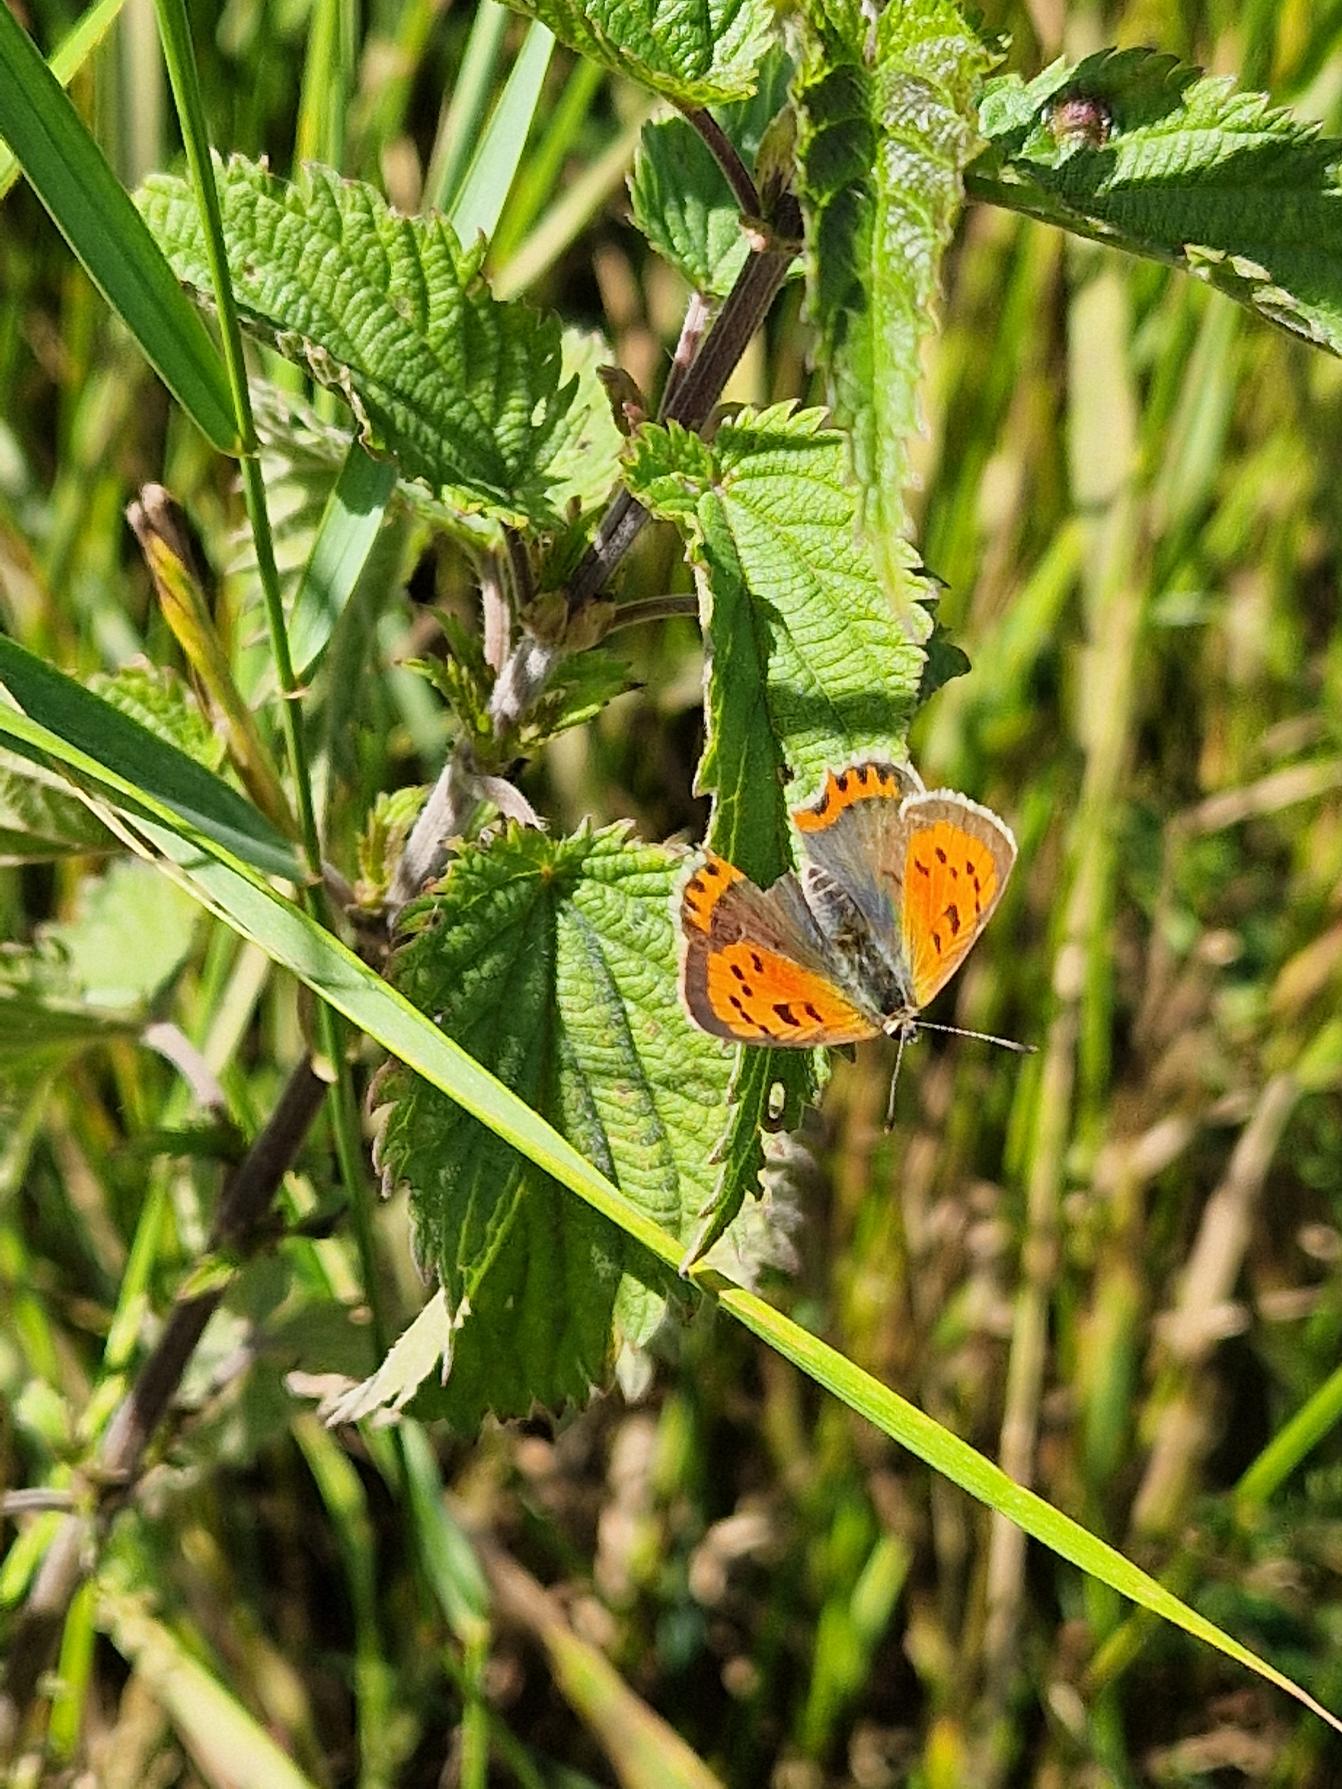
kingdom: Animalia
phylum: Arthropoda
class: Insecta
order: Lepidoptera
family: Lycaenidae
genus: Lycaena
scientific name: Lycaena phlaeas
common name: Lille ildfugl
